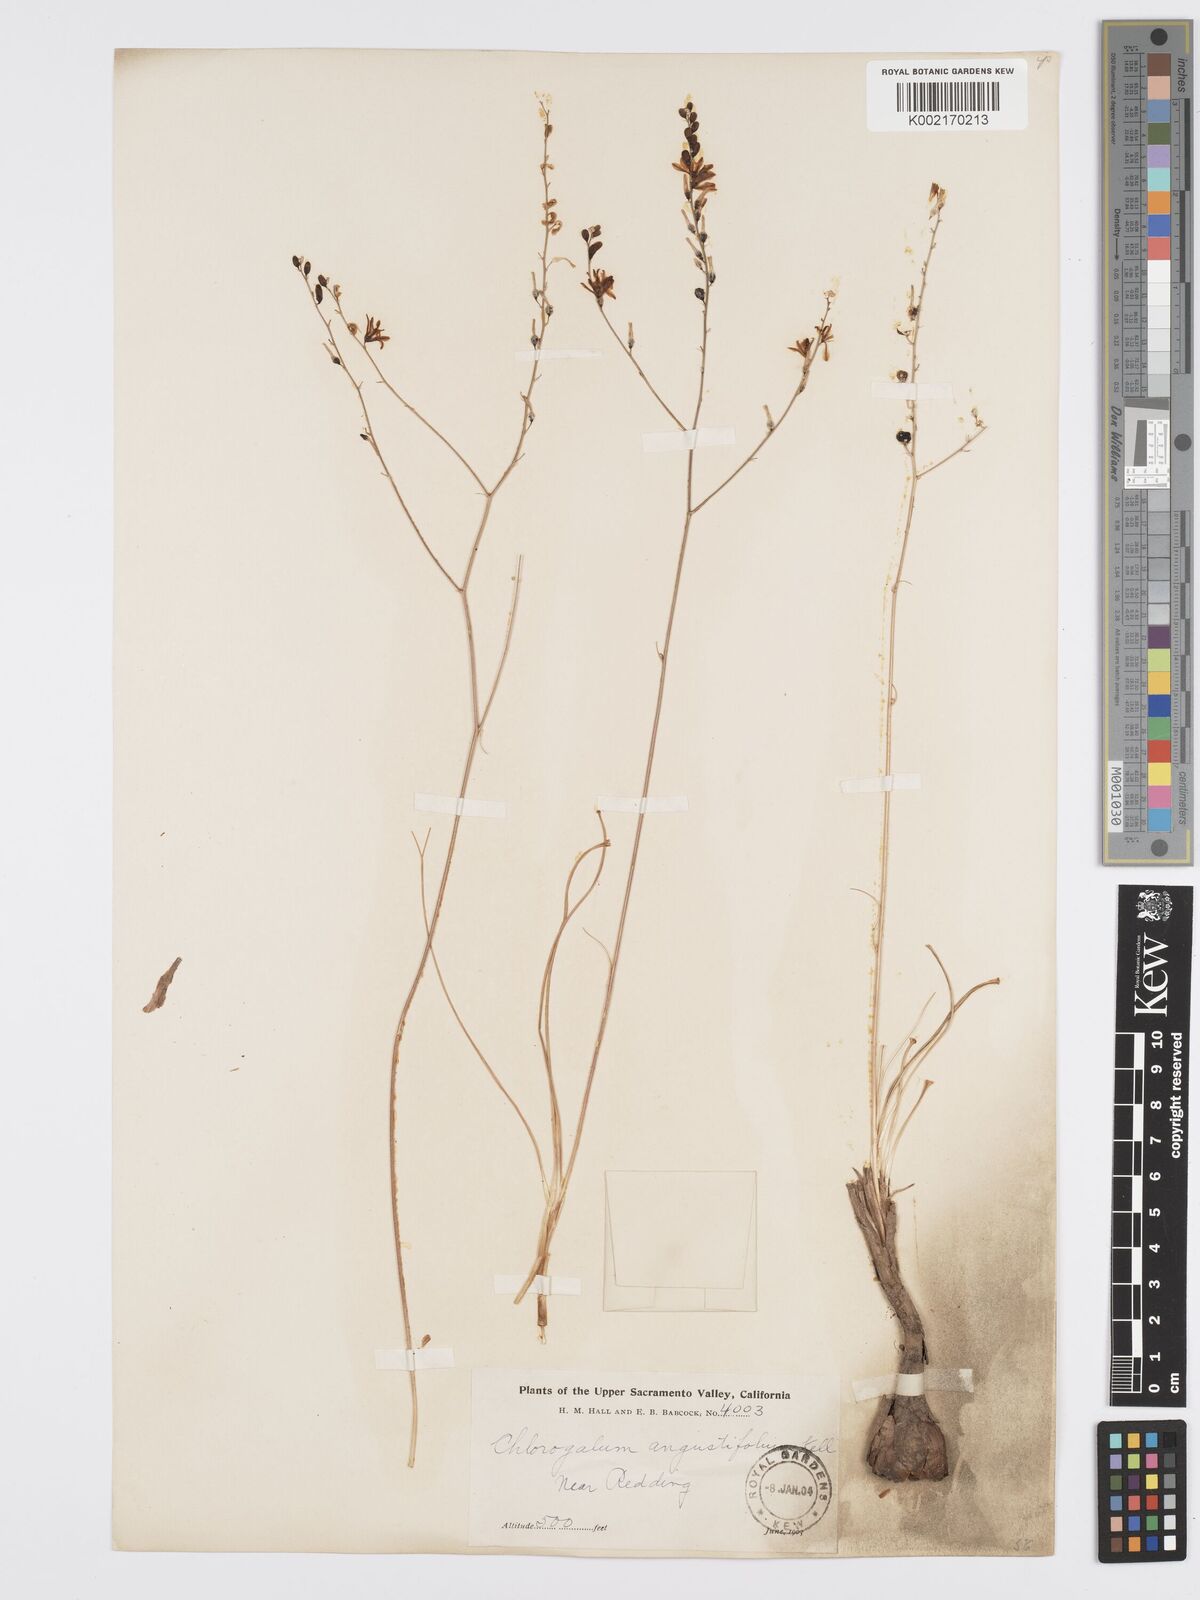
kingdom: Plantae
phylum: Tracheophyta
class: Liliopsida
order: Asparagales
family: Asparagaceae
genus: Chlorogalum
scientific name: Chlorogalum angustifolium
